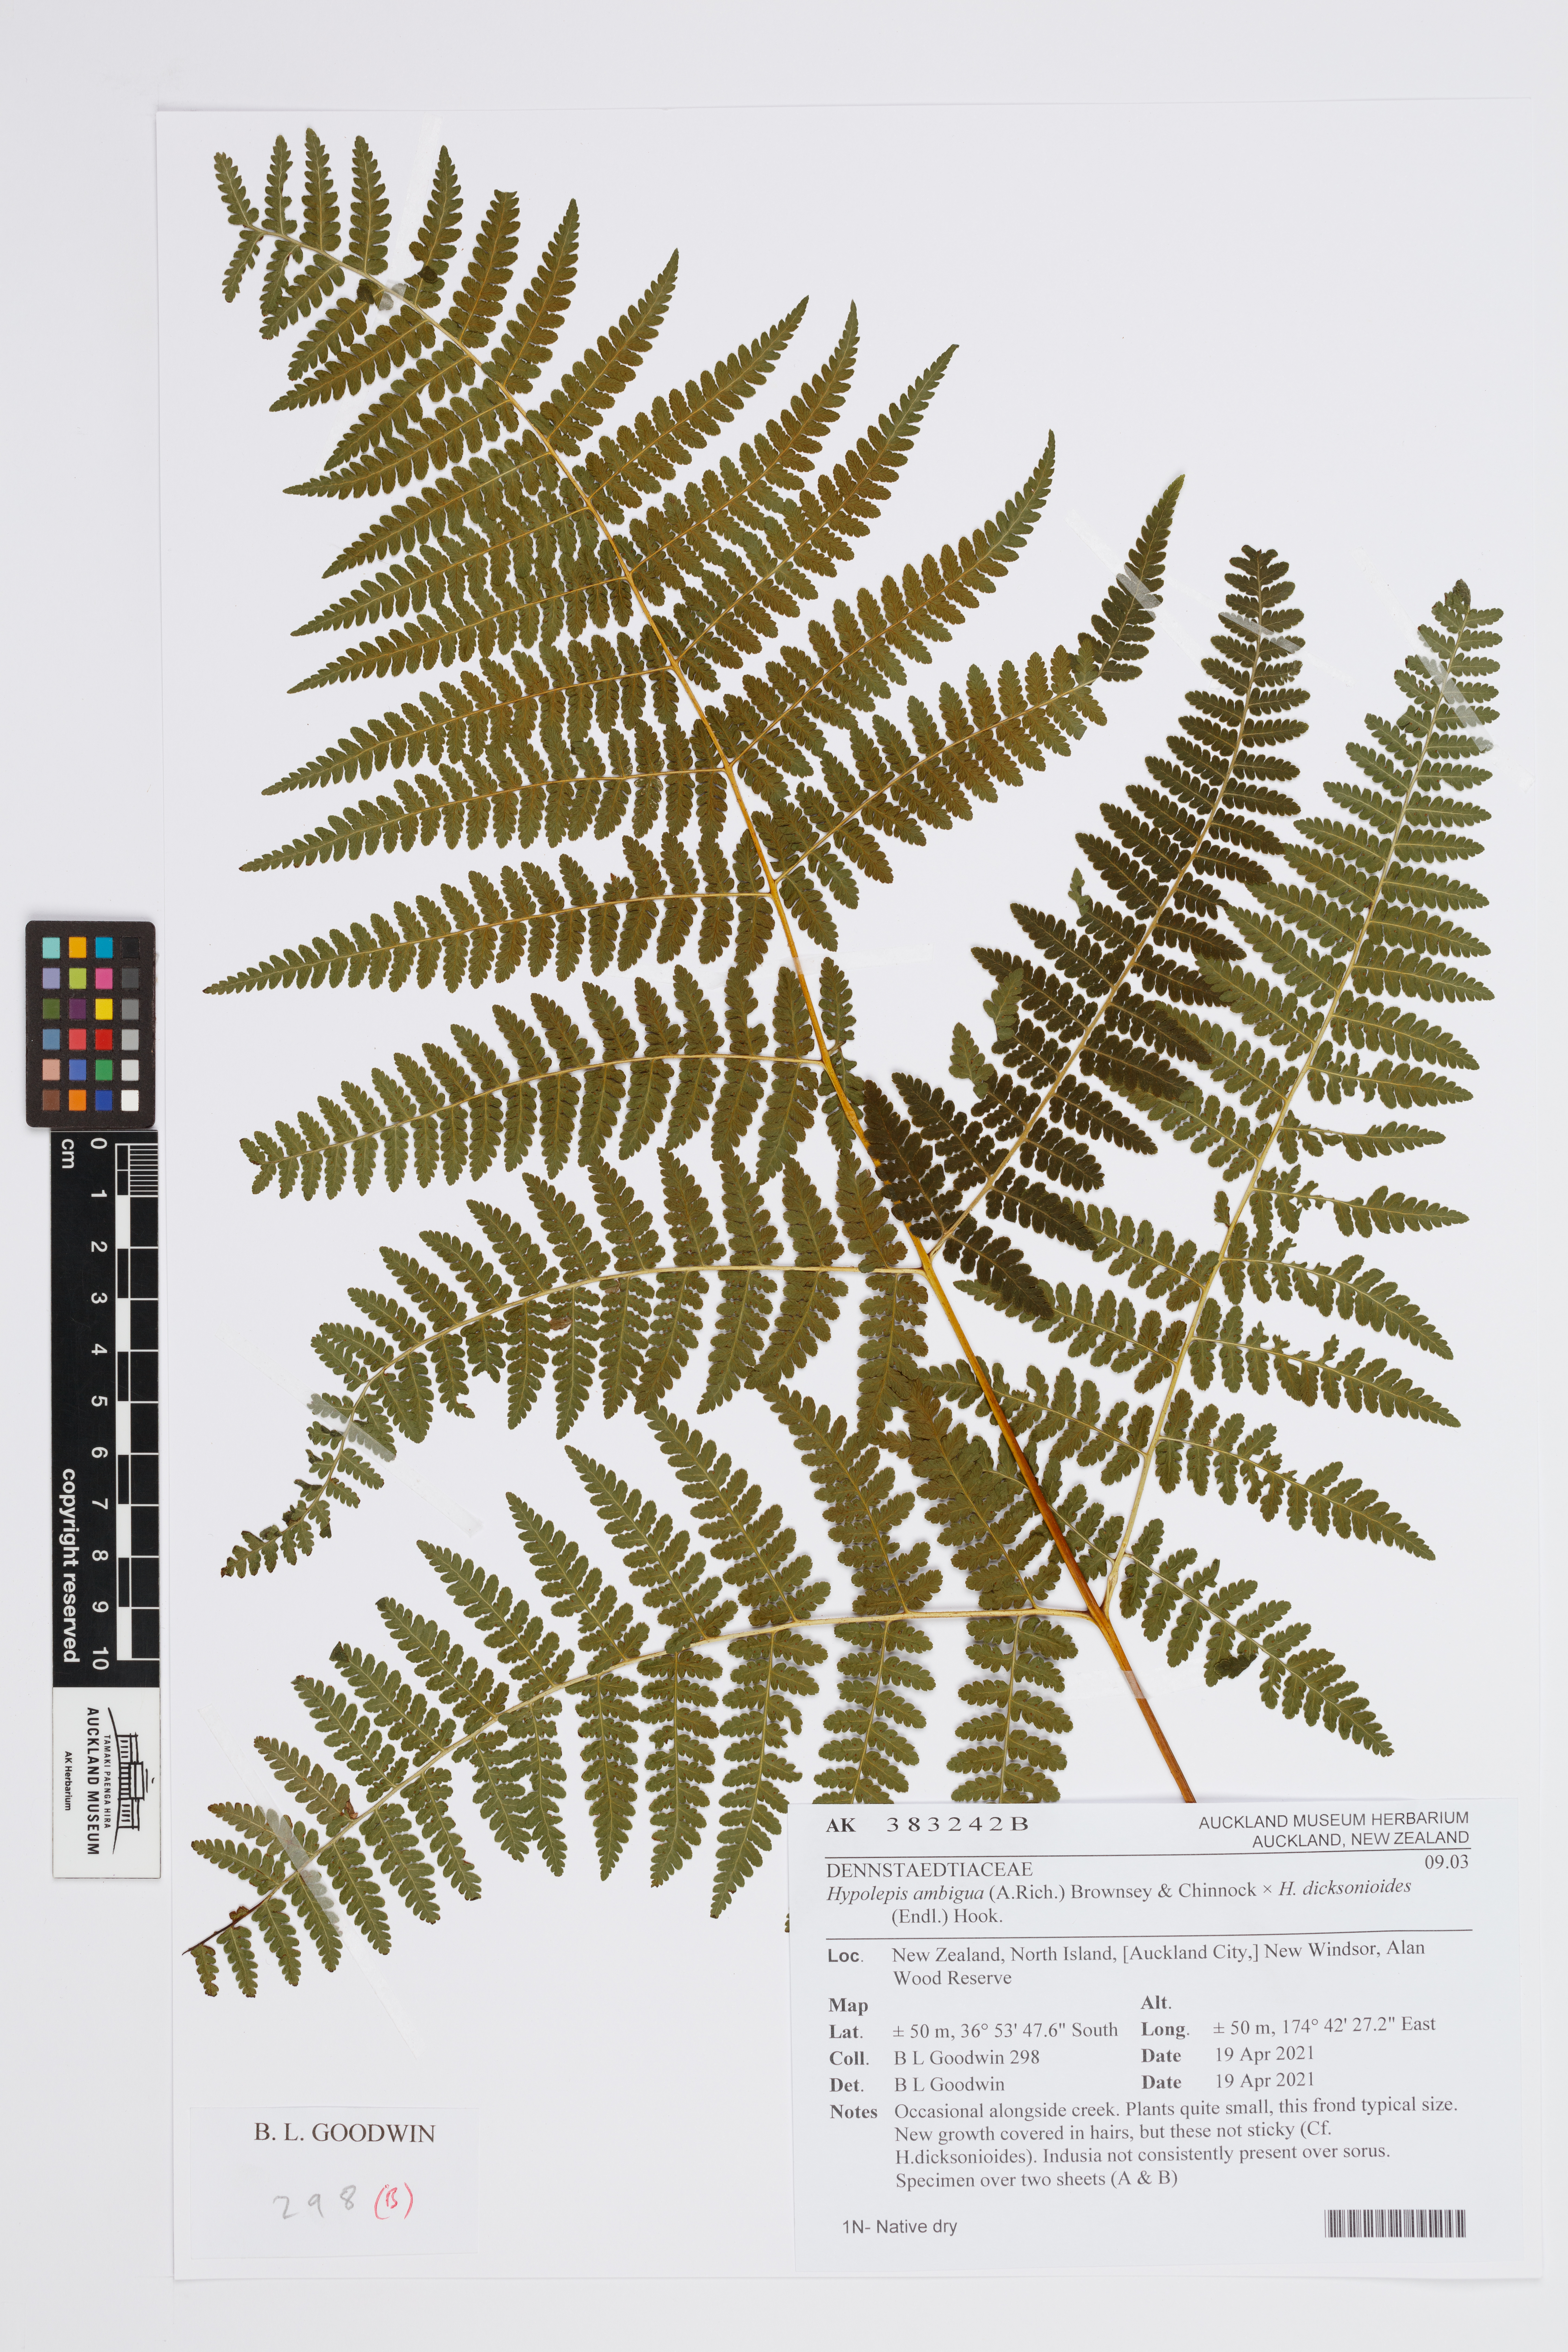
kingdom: Plantae
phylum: Tracheophyta
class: Polypodiopsida
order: Polypodiales
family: Dennstaedtiaceae
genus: Hypolepis
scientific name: Hypolepis
